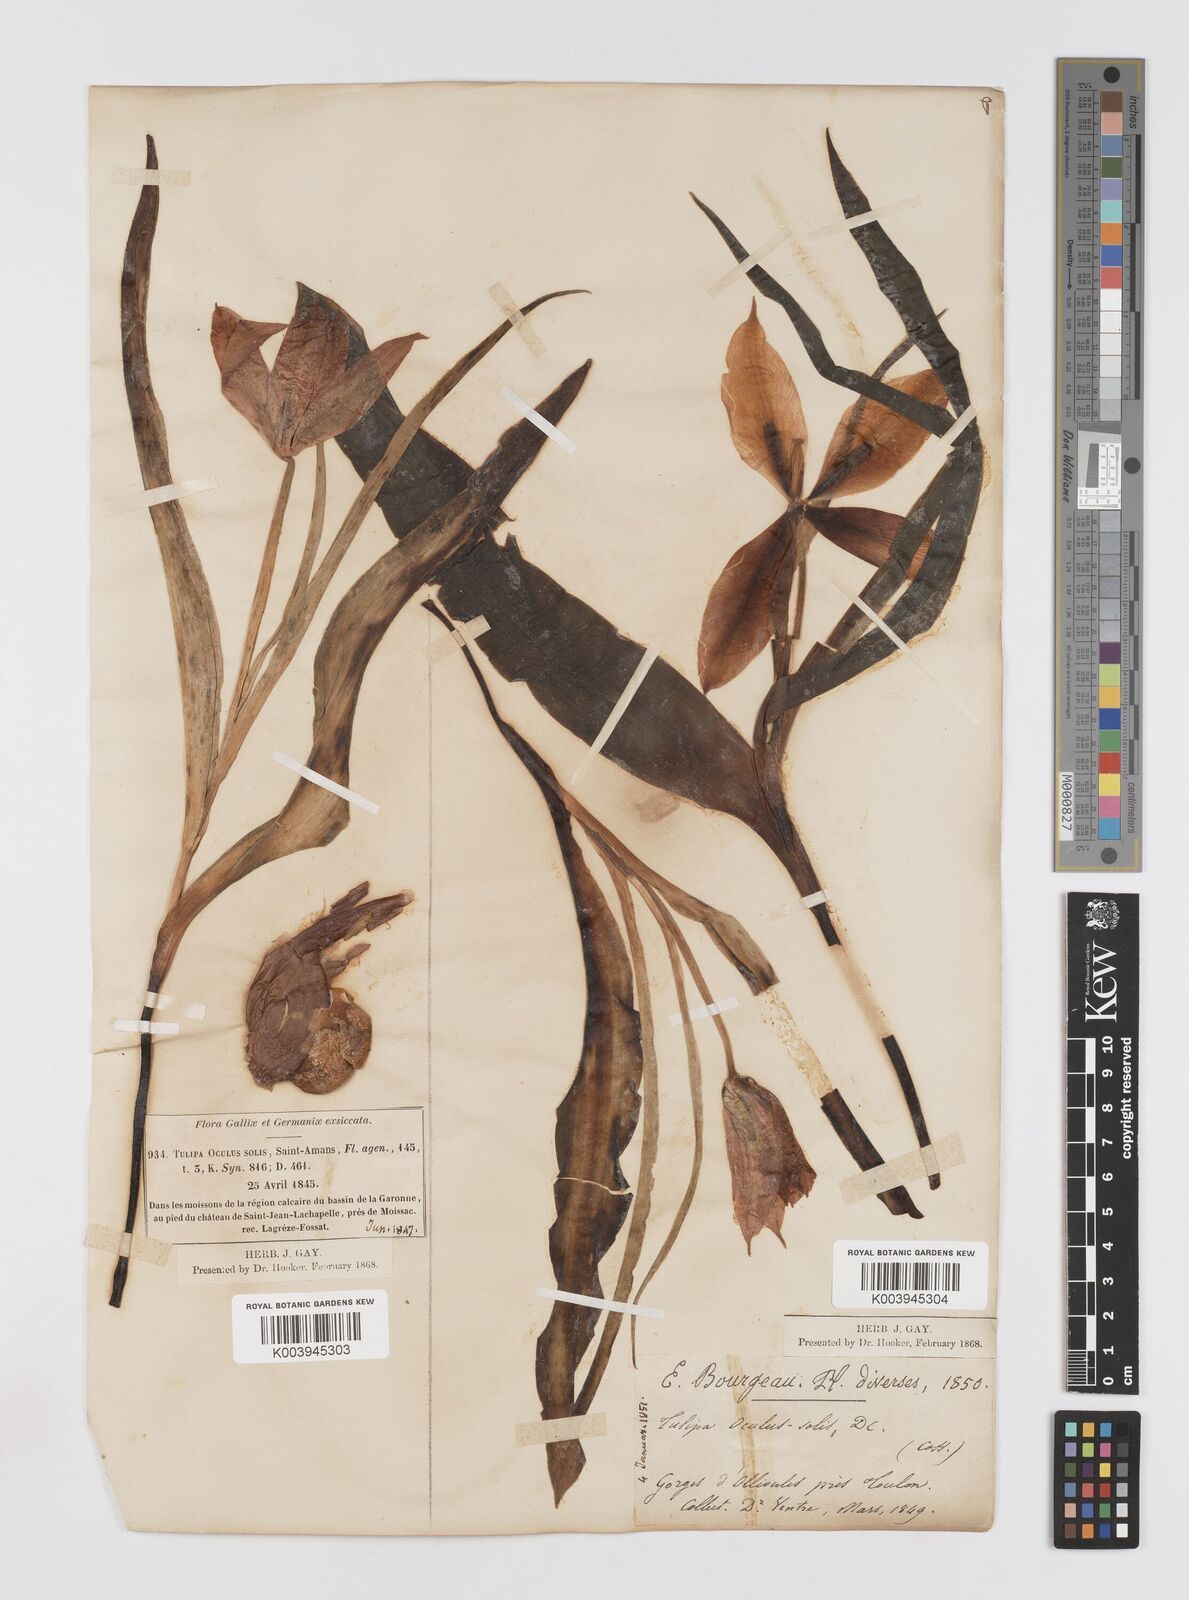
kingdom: Plantae
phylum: Tracheophyta
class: Liliopsida
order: Liliales
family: Liliaceae
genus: Tulipa
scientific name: Tulipa agenensis
